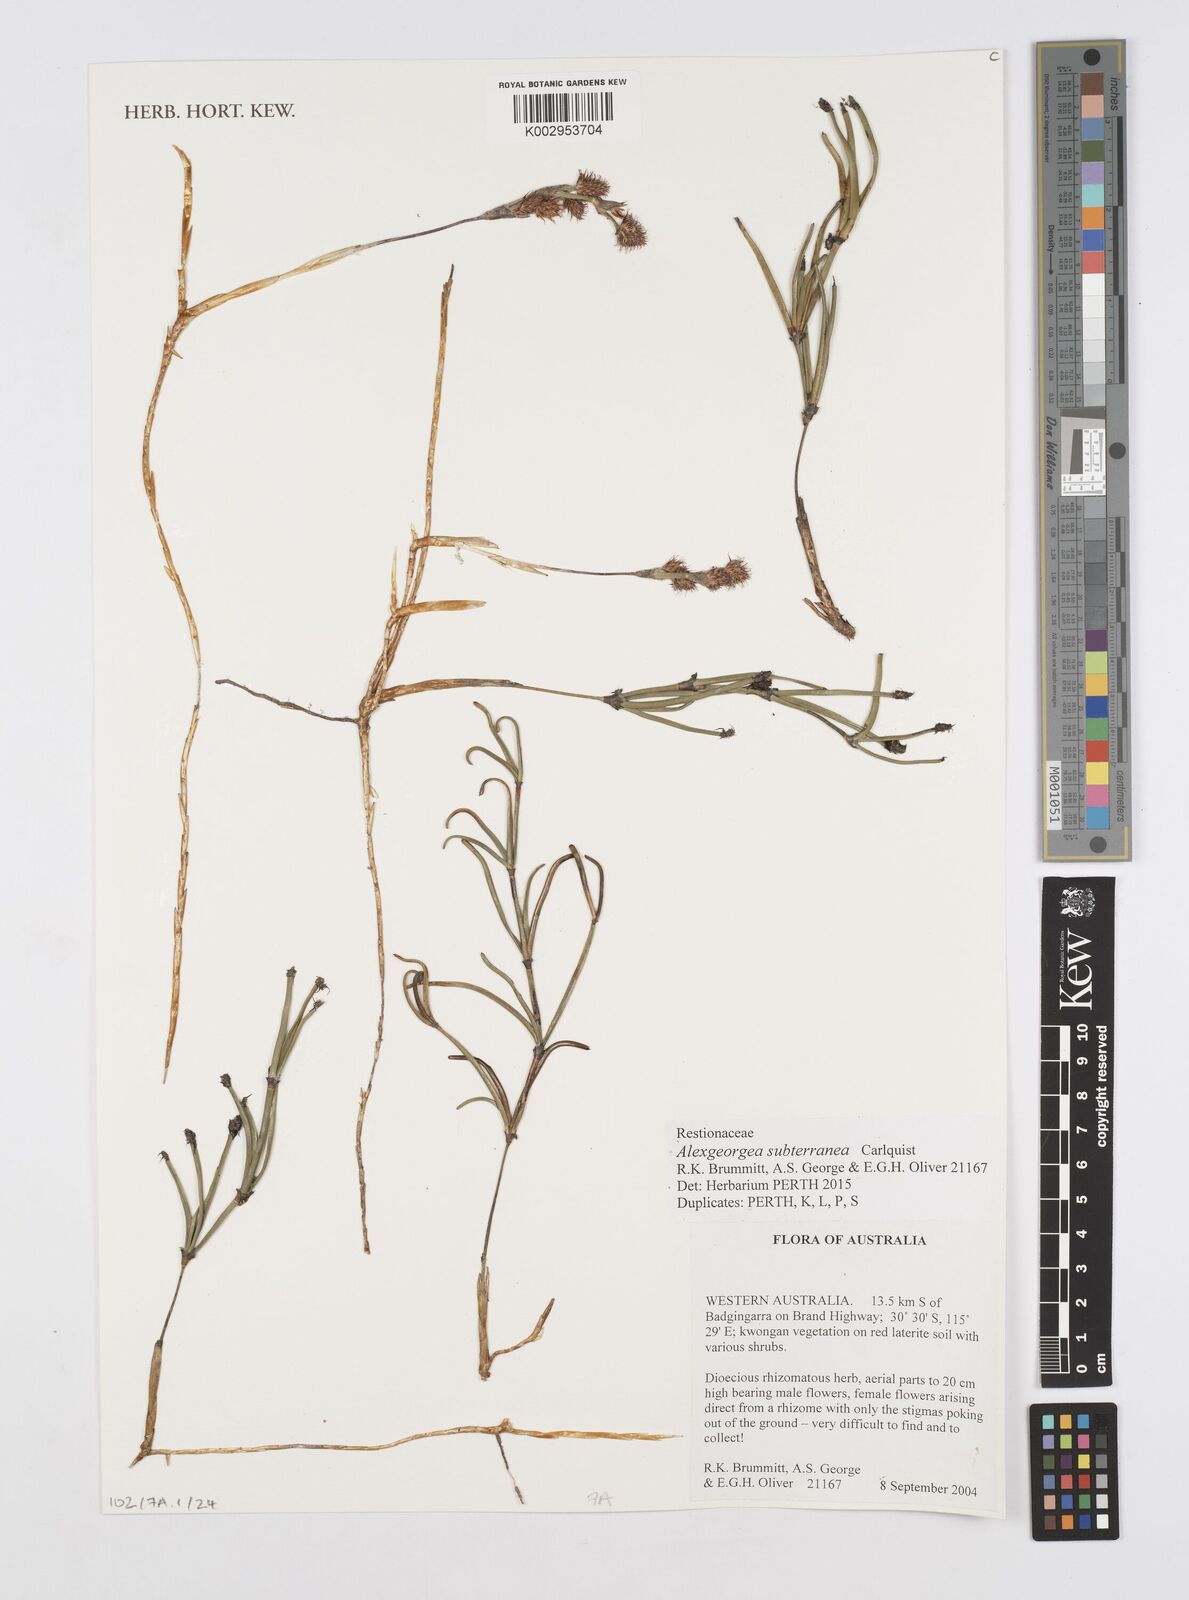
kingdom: Plantae
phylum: Tracheophyta
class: Liliopsida
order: Poales
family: Restionaceae
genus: Alexgeorgea
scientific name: Alexgeorgea subterranea
